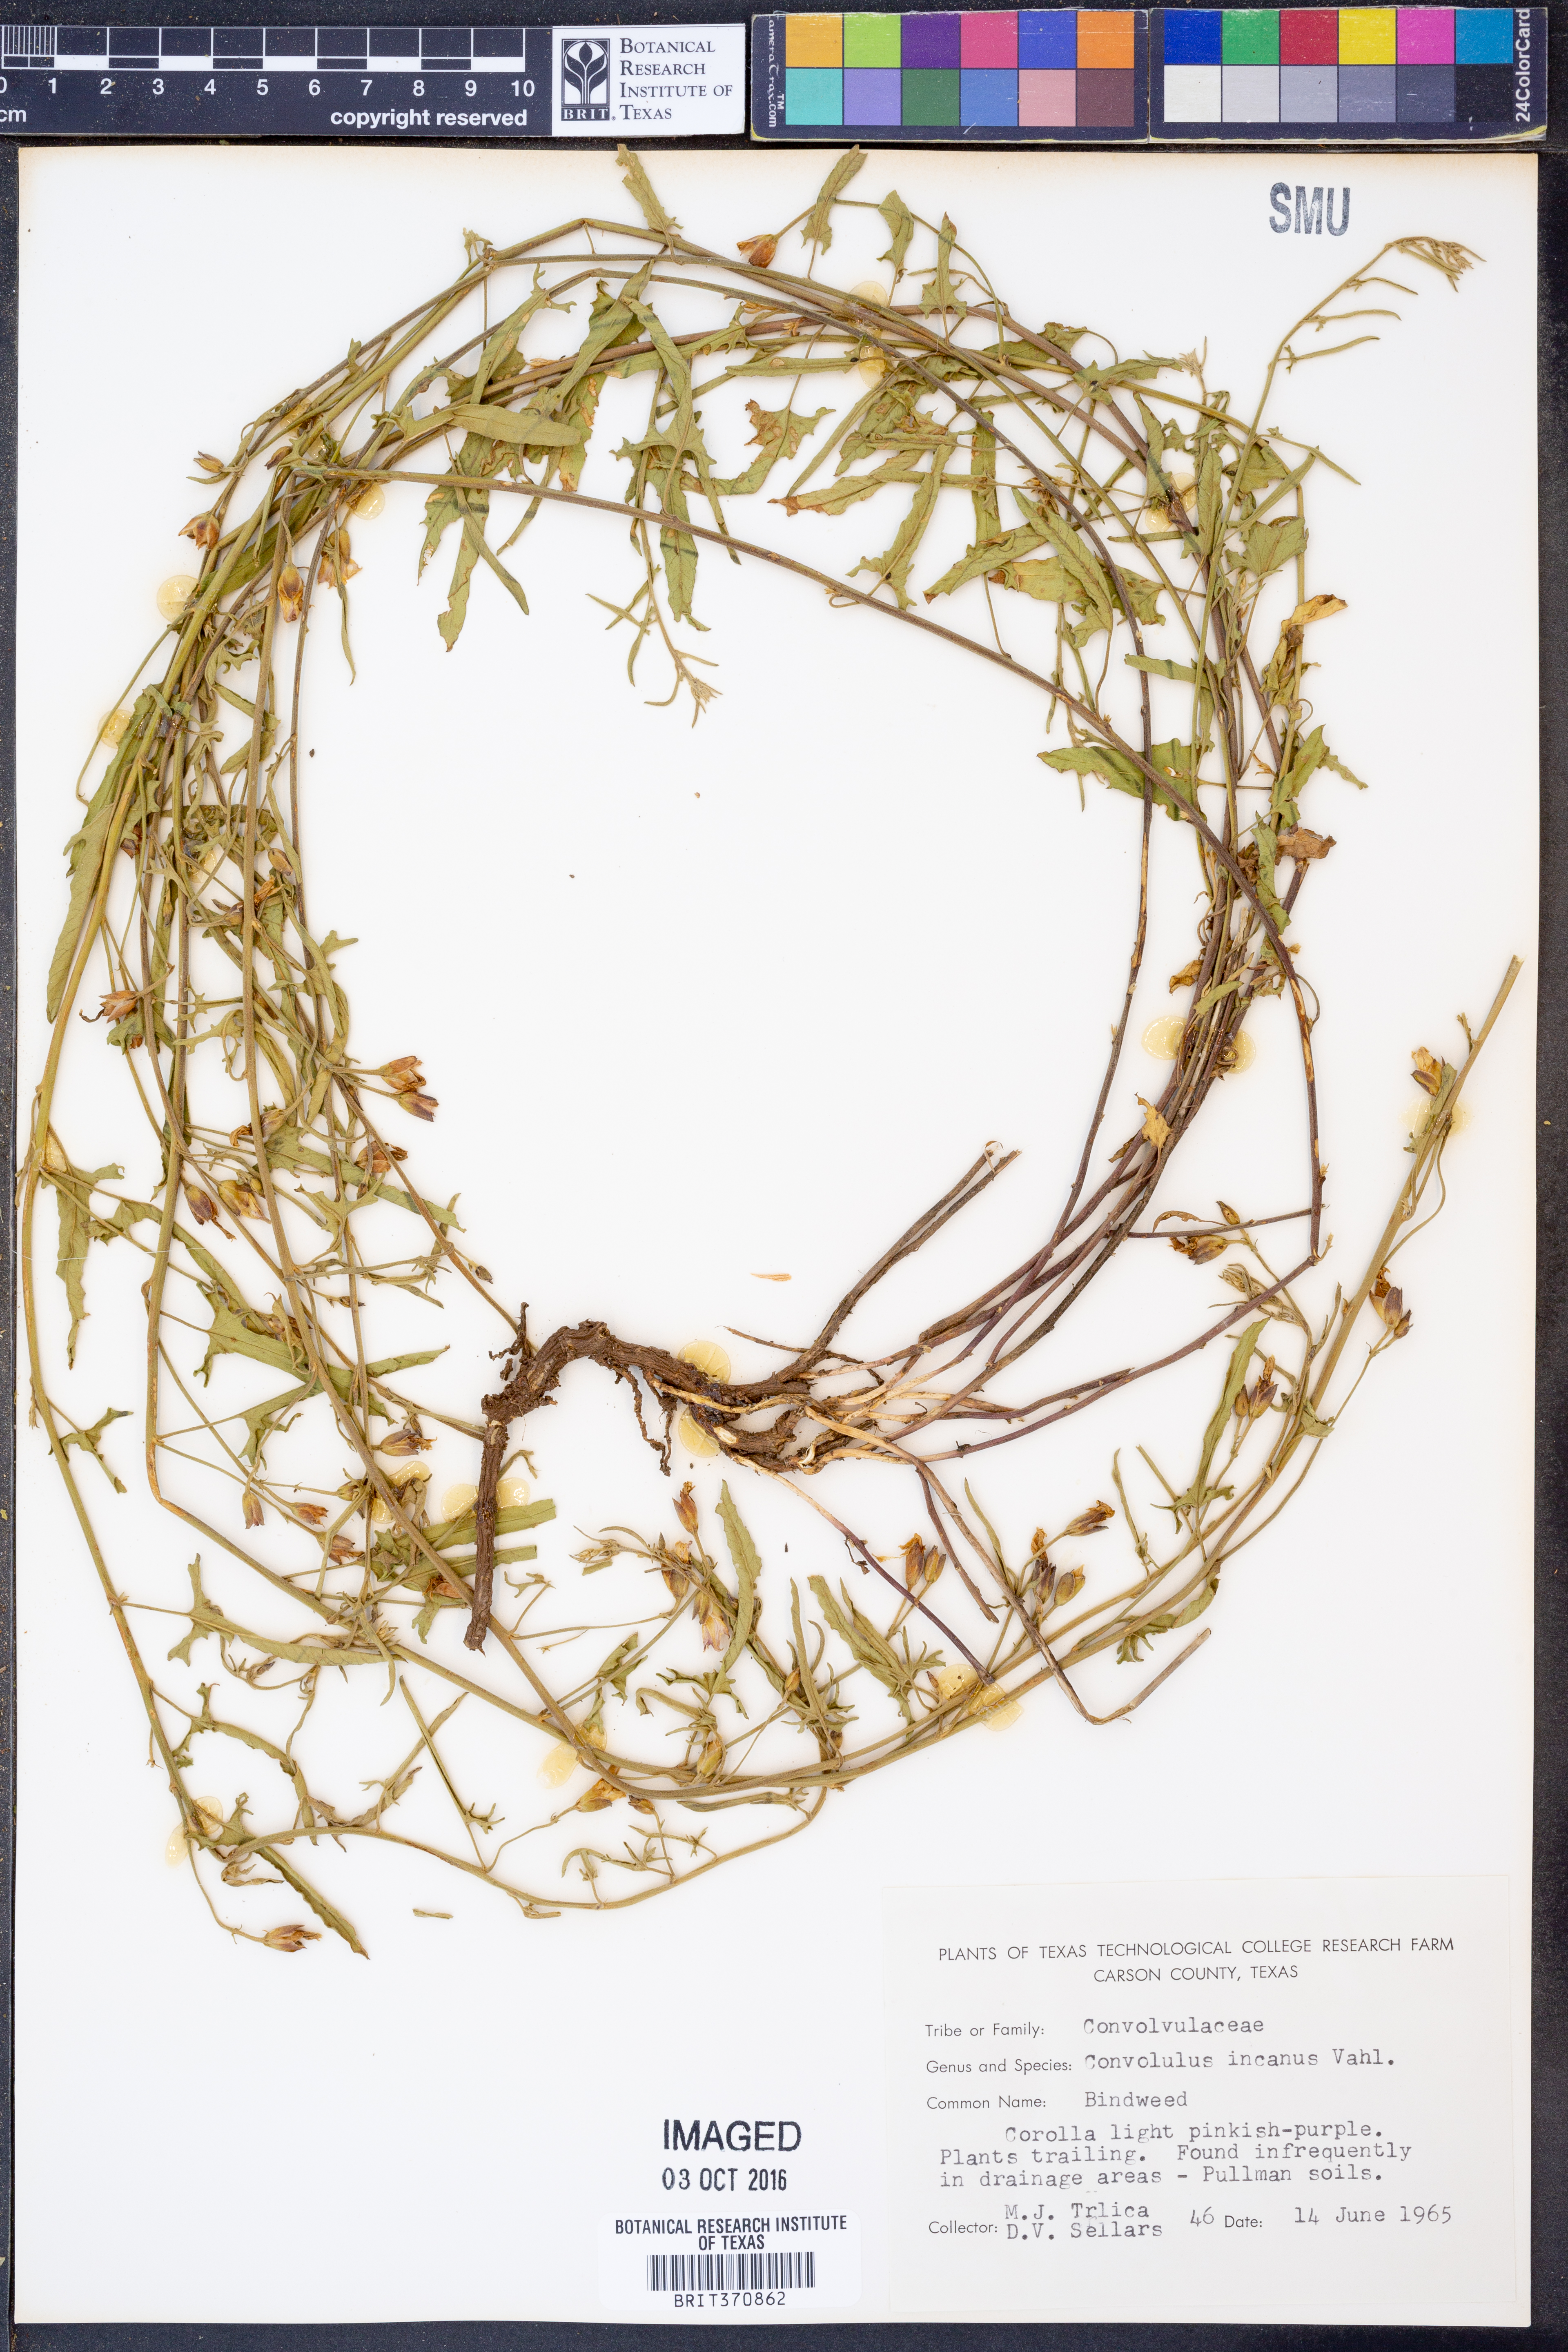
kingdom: Plantae
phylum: Tracheophyta
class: Magnoliopsida
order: Solanales
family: Convolvulaceae
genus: Convolvulus
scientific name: Convolvulus equitans
